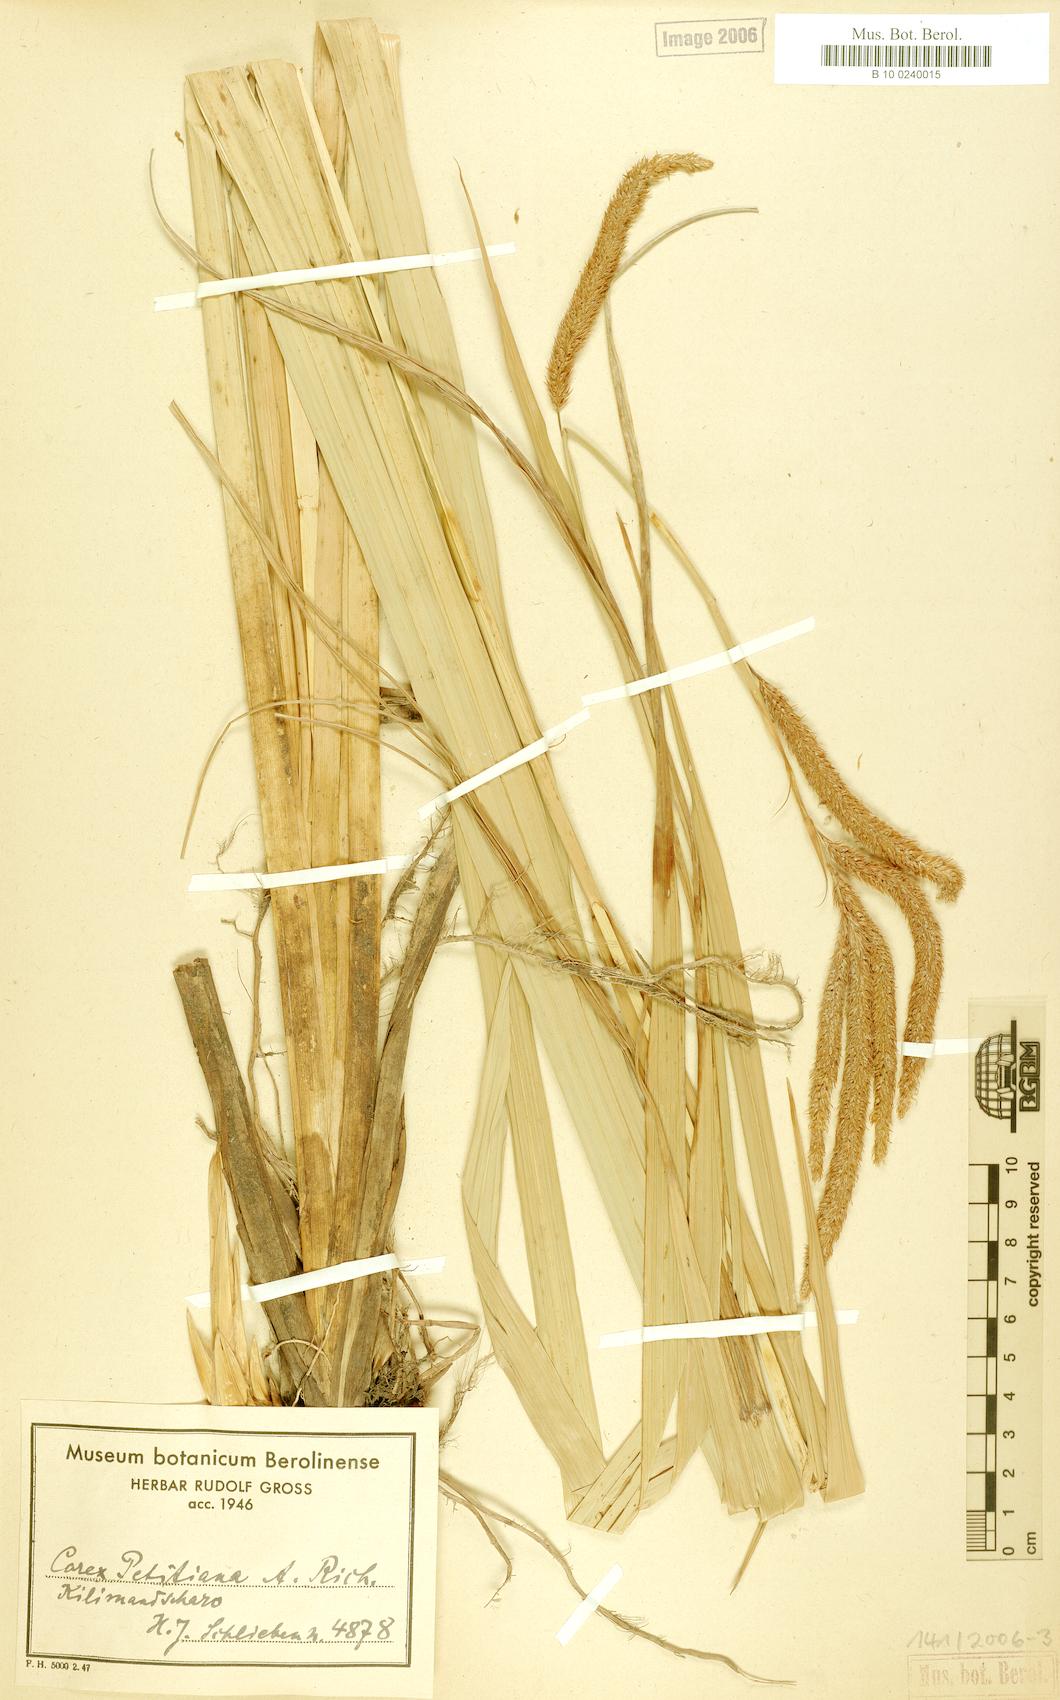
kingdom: Plantae
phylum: Tracheophyta
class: Liliopsida
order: Poales
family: Cyperaceae
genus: Carex
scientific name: Carex petitiana
